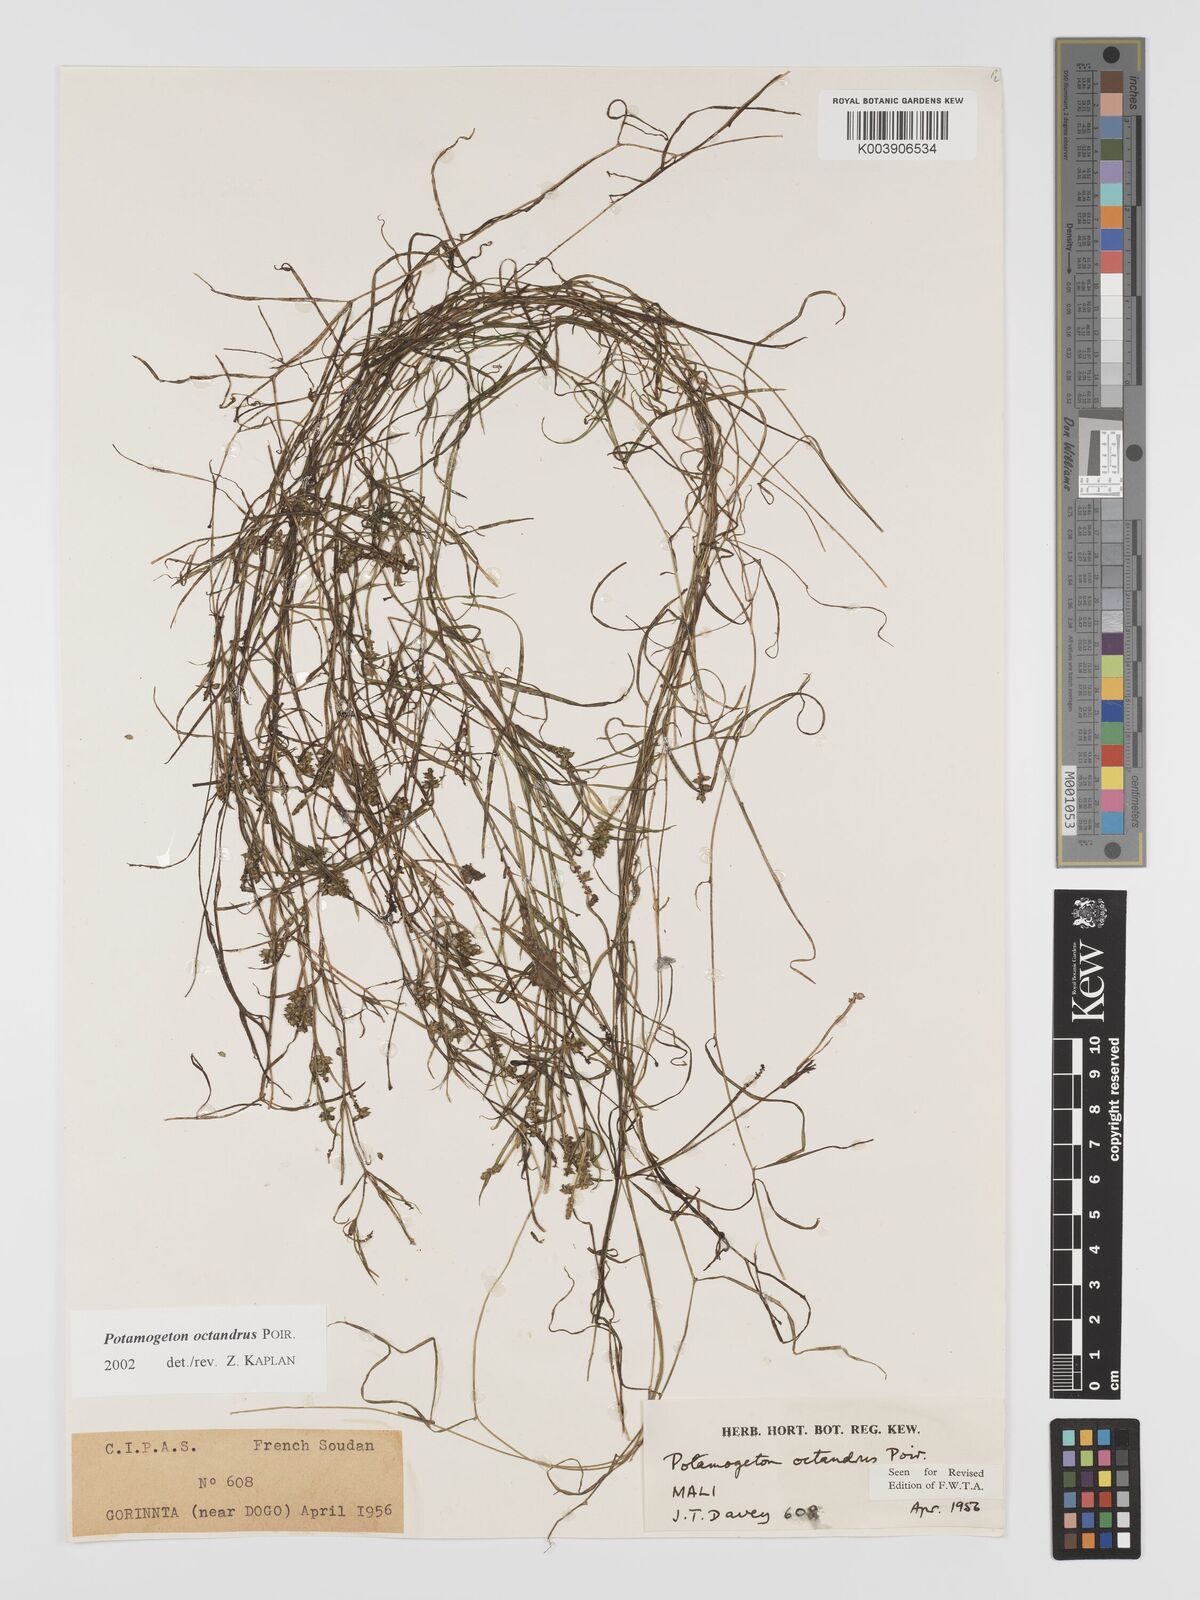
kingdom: Plantae
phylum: Tracheophyta
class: Liliopsida
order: Alismatales
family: Potamogetonaceae
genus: Potamogeton
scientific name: Potamogeton octandrus
